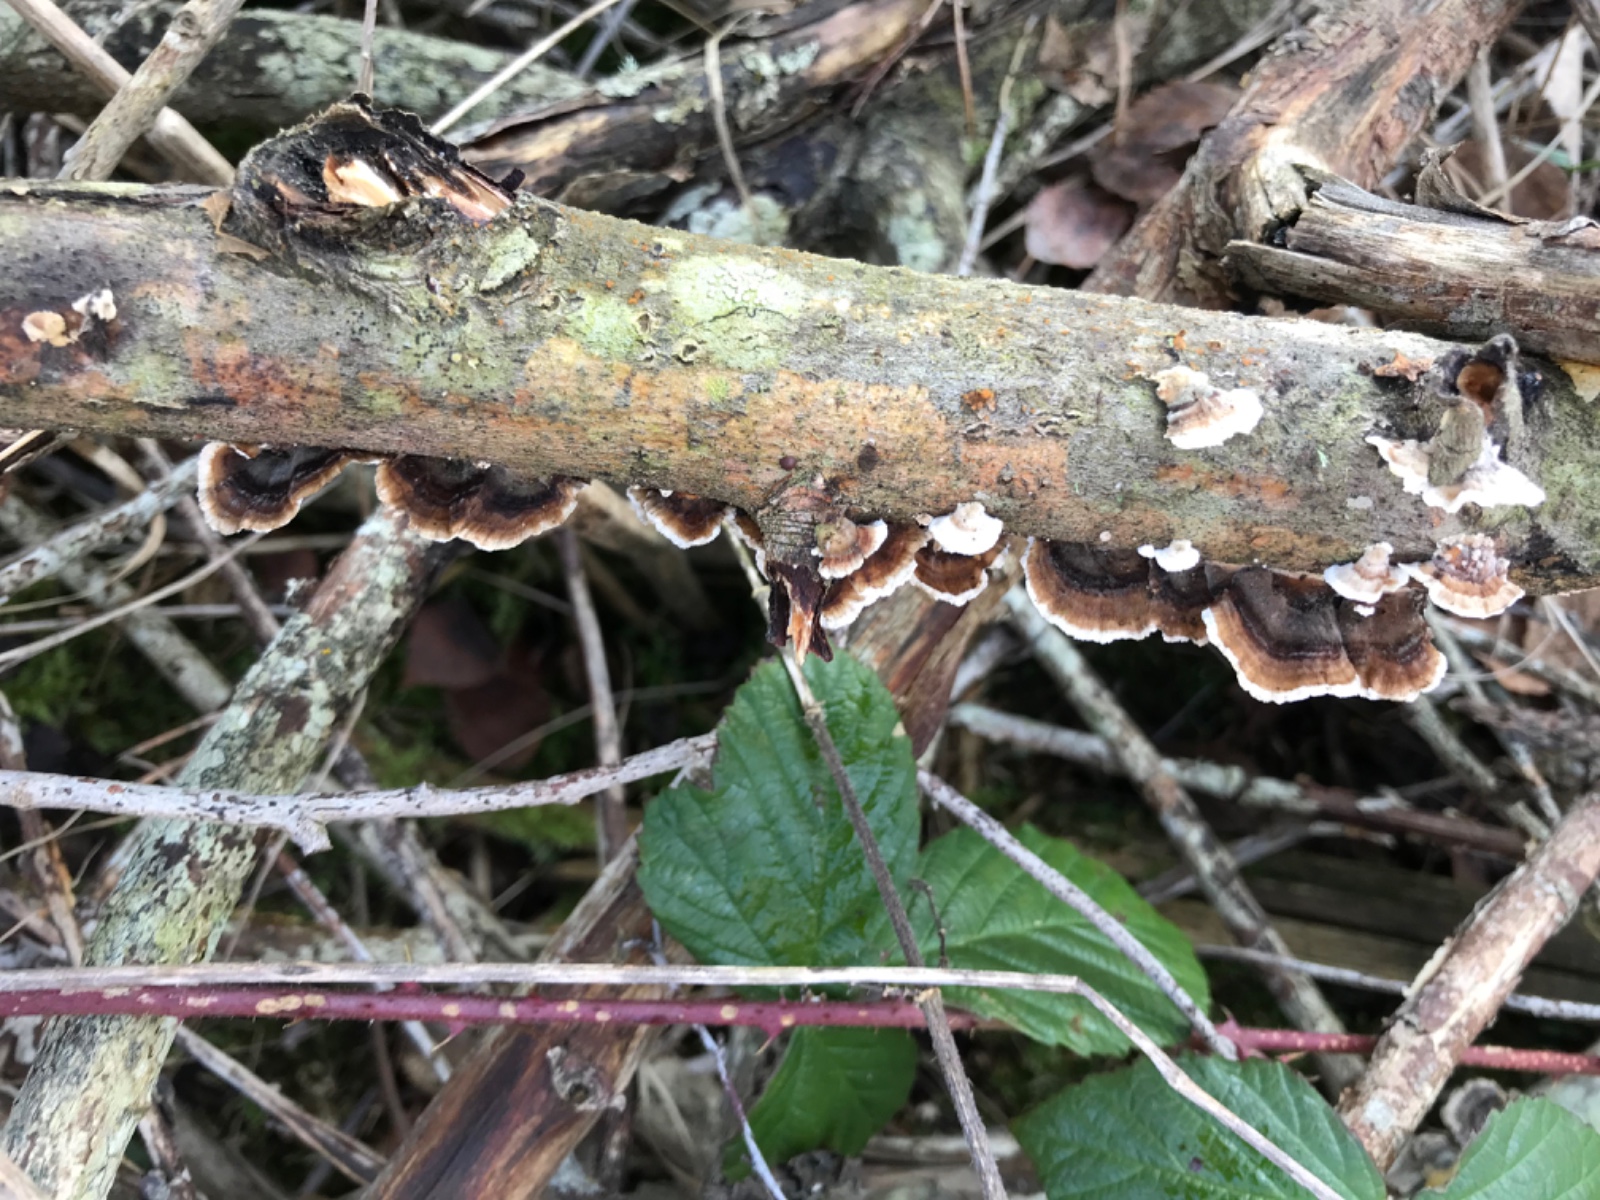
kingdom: Fungi
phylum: Basidiomycota
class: Agaricomycetes
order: Polyporales
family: Polyporaceae
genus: Trametes
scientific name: Trametes versicolor
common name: broget læderporesvamp
